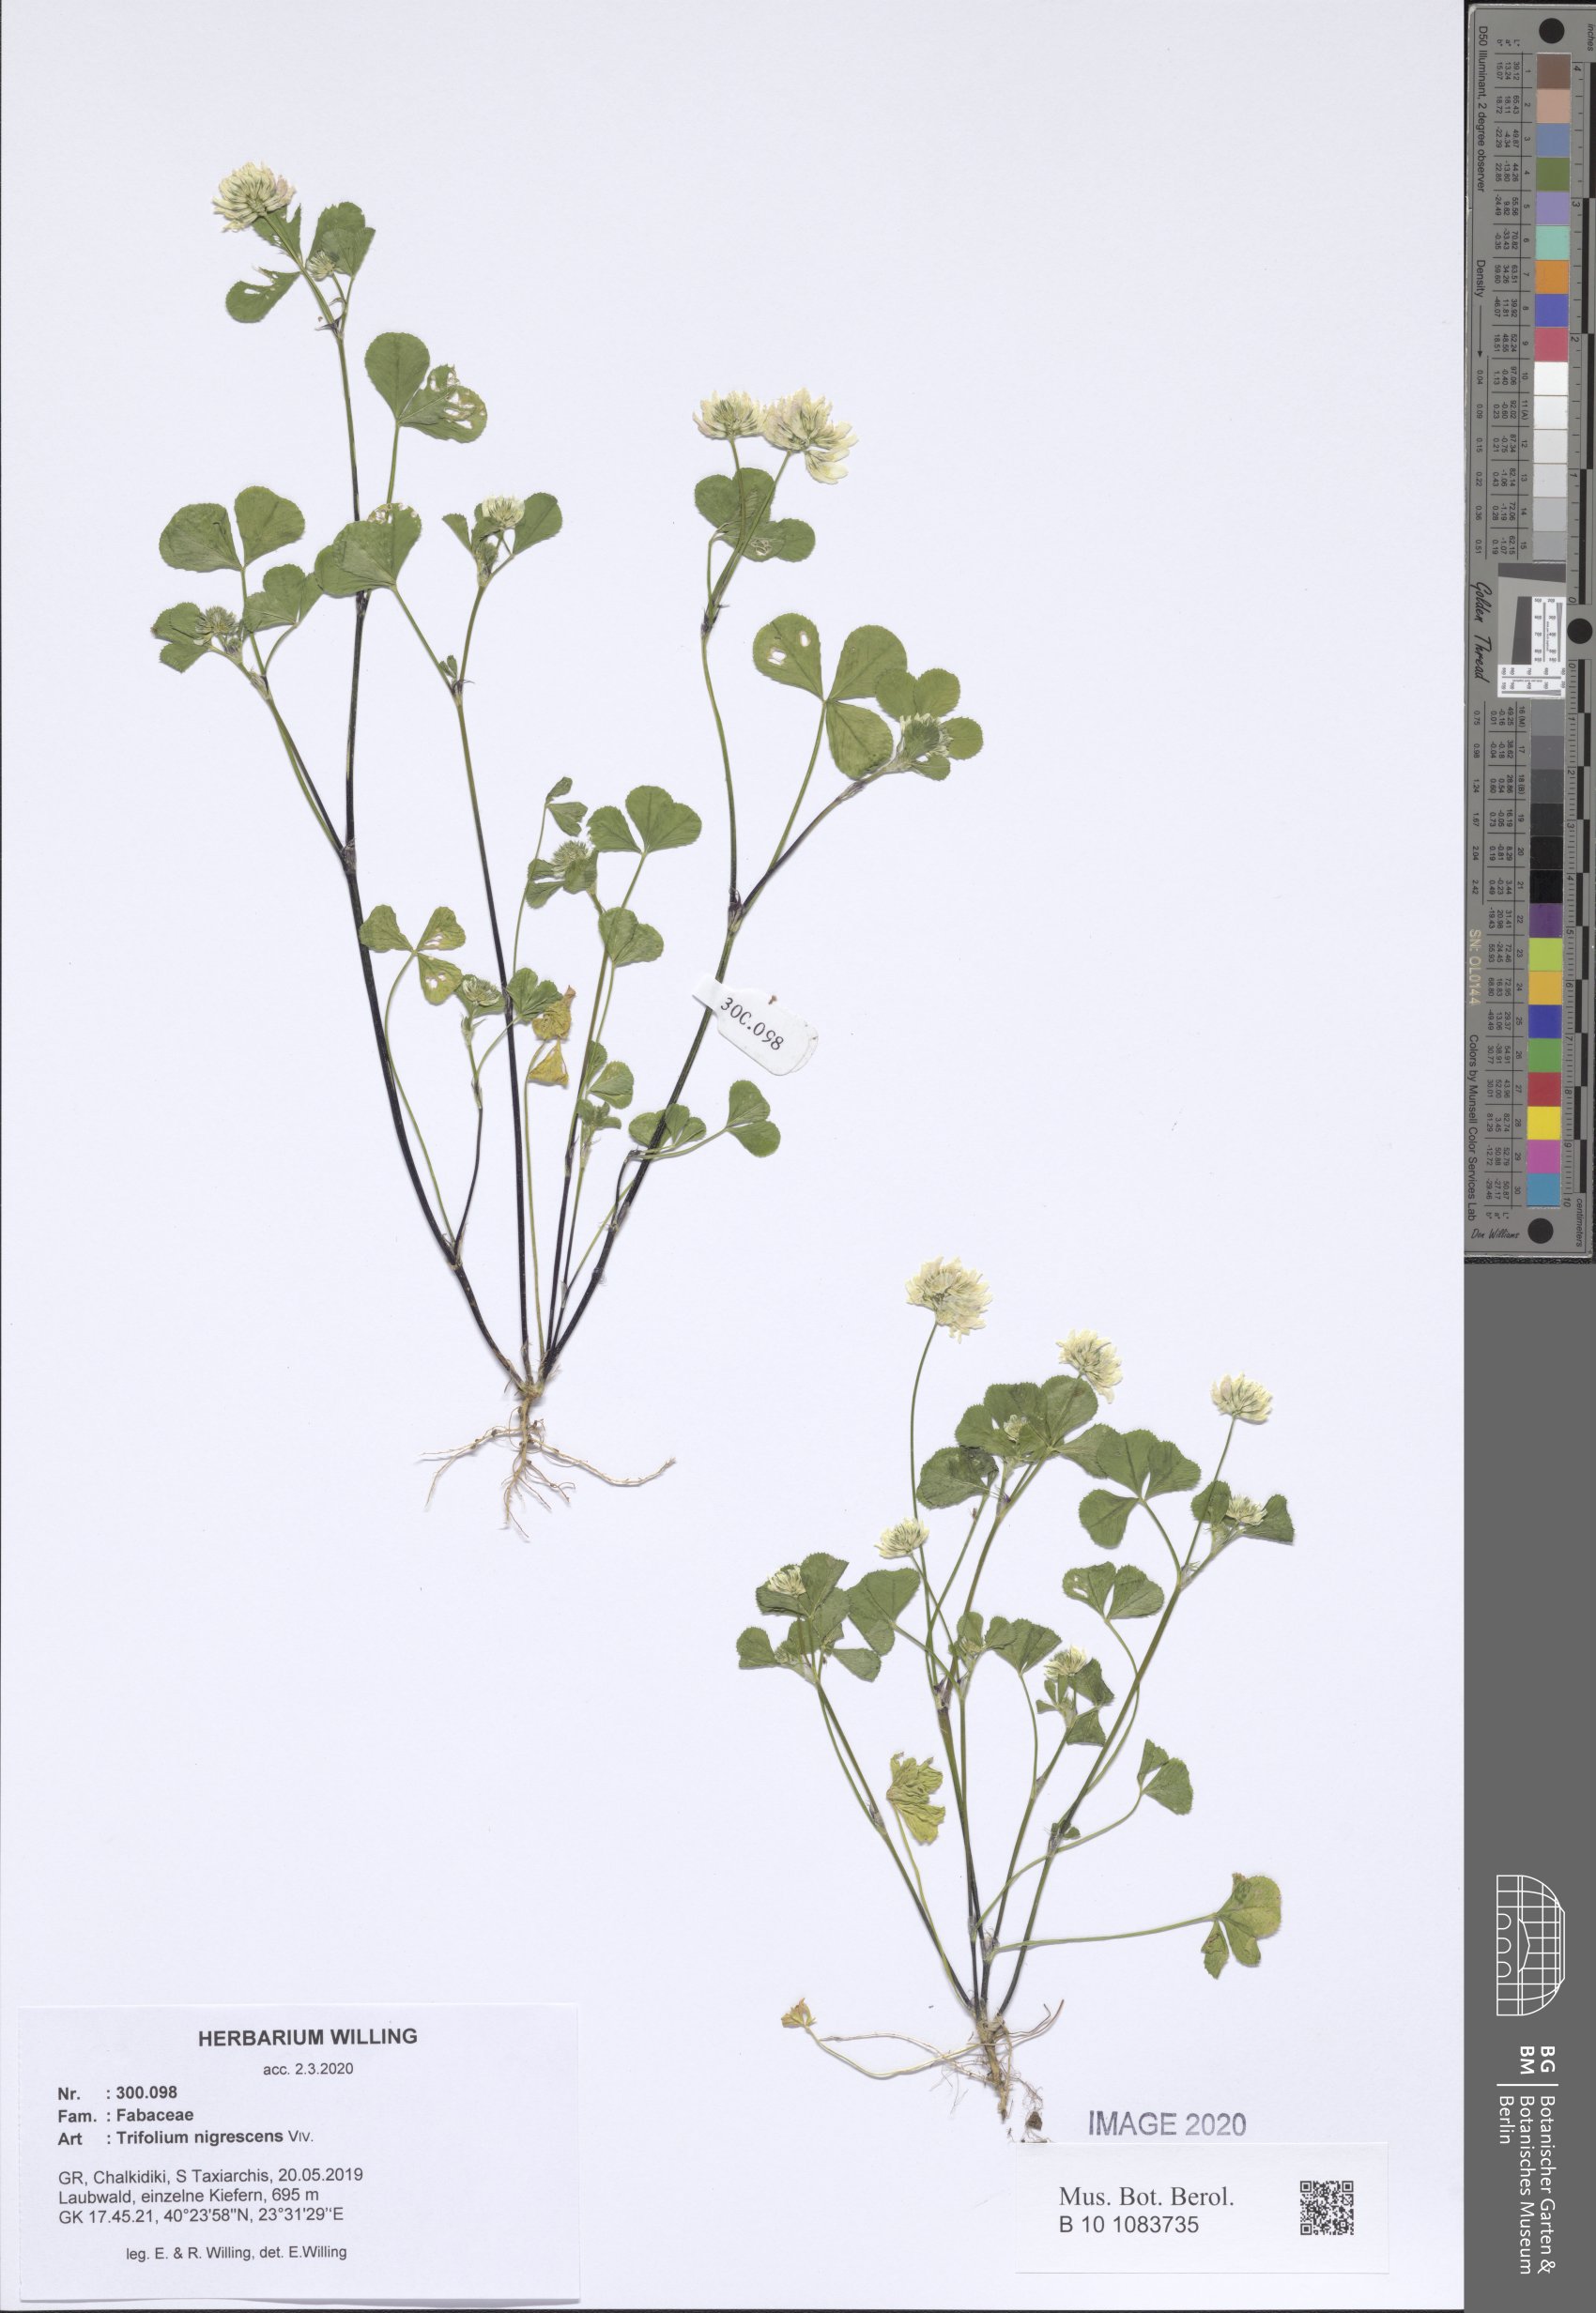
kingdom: Plantae
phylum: Tracheophyta
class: Magnoliopsida
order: Fabales
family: Fabaceae
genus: Trifolium
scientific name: Trifolium nigrescens
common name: Small white clover
